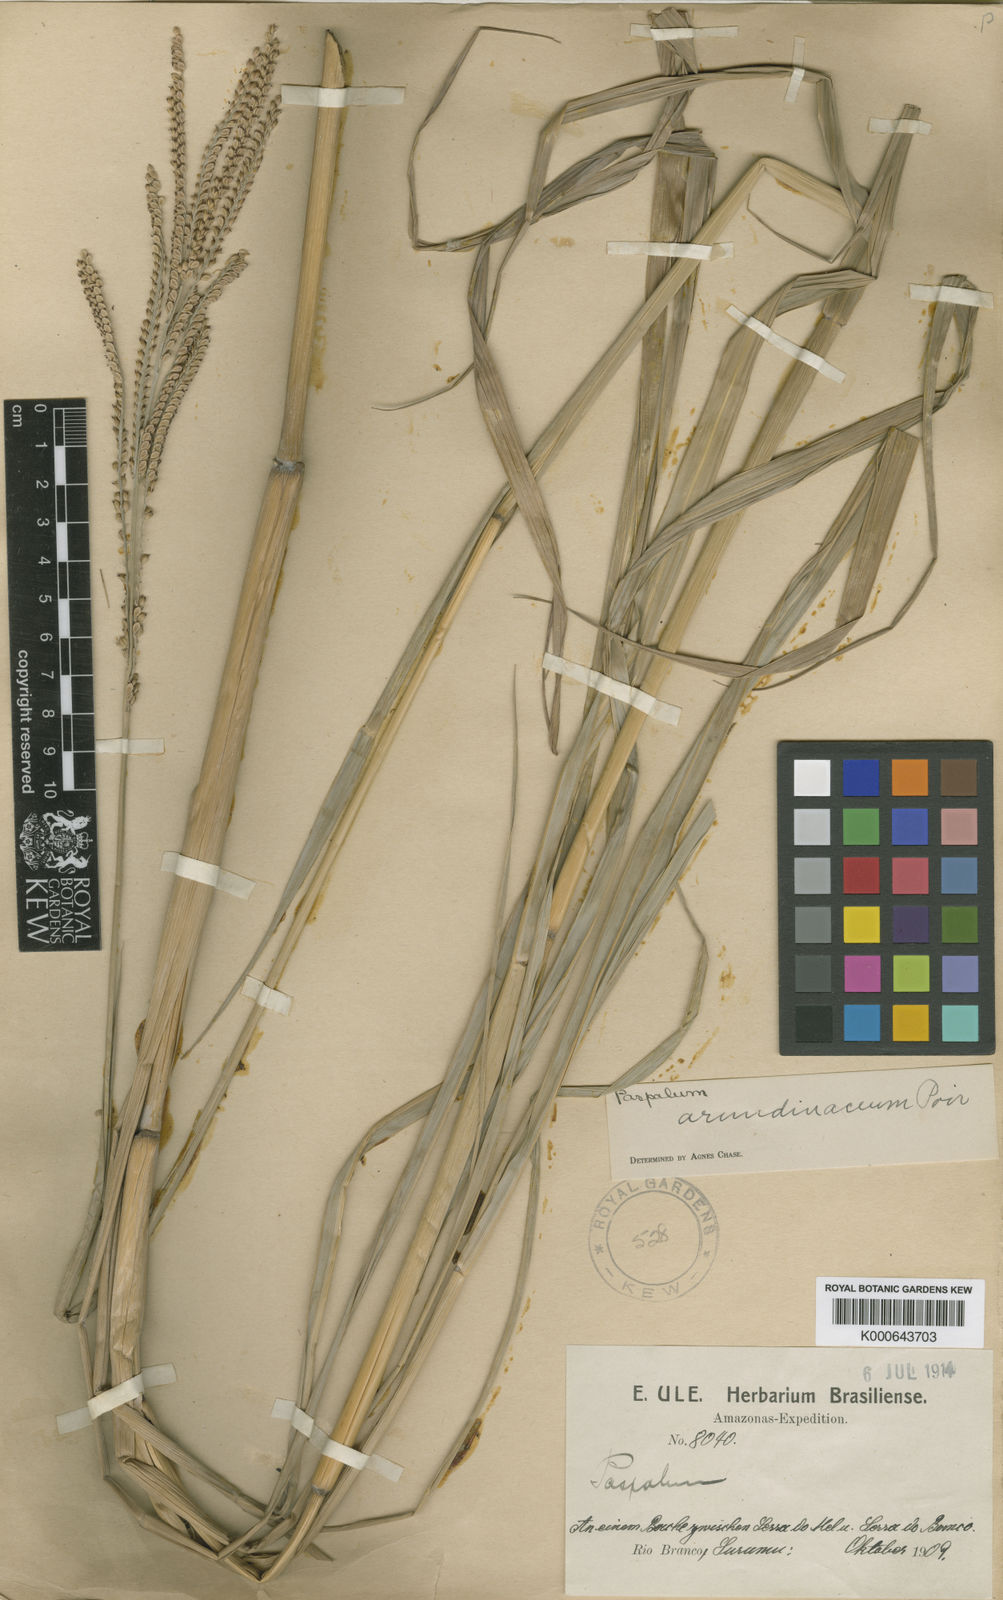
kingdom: Plantae
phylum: Tracheophyta
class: Liliopsida
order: Poales
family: Poaceae
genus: Paspalum
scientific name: Paspalum arundinaceum
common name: Thick ditch crowngrass
